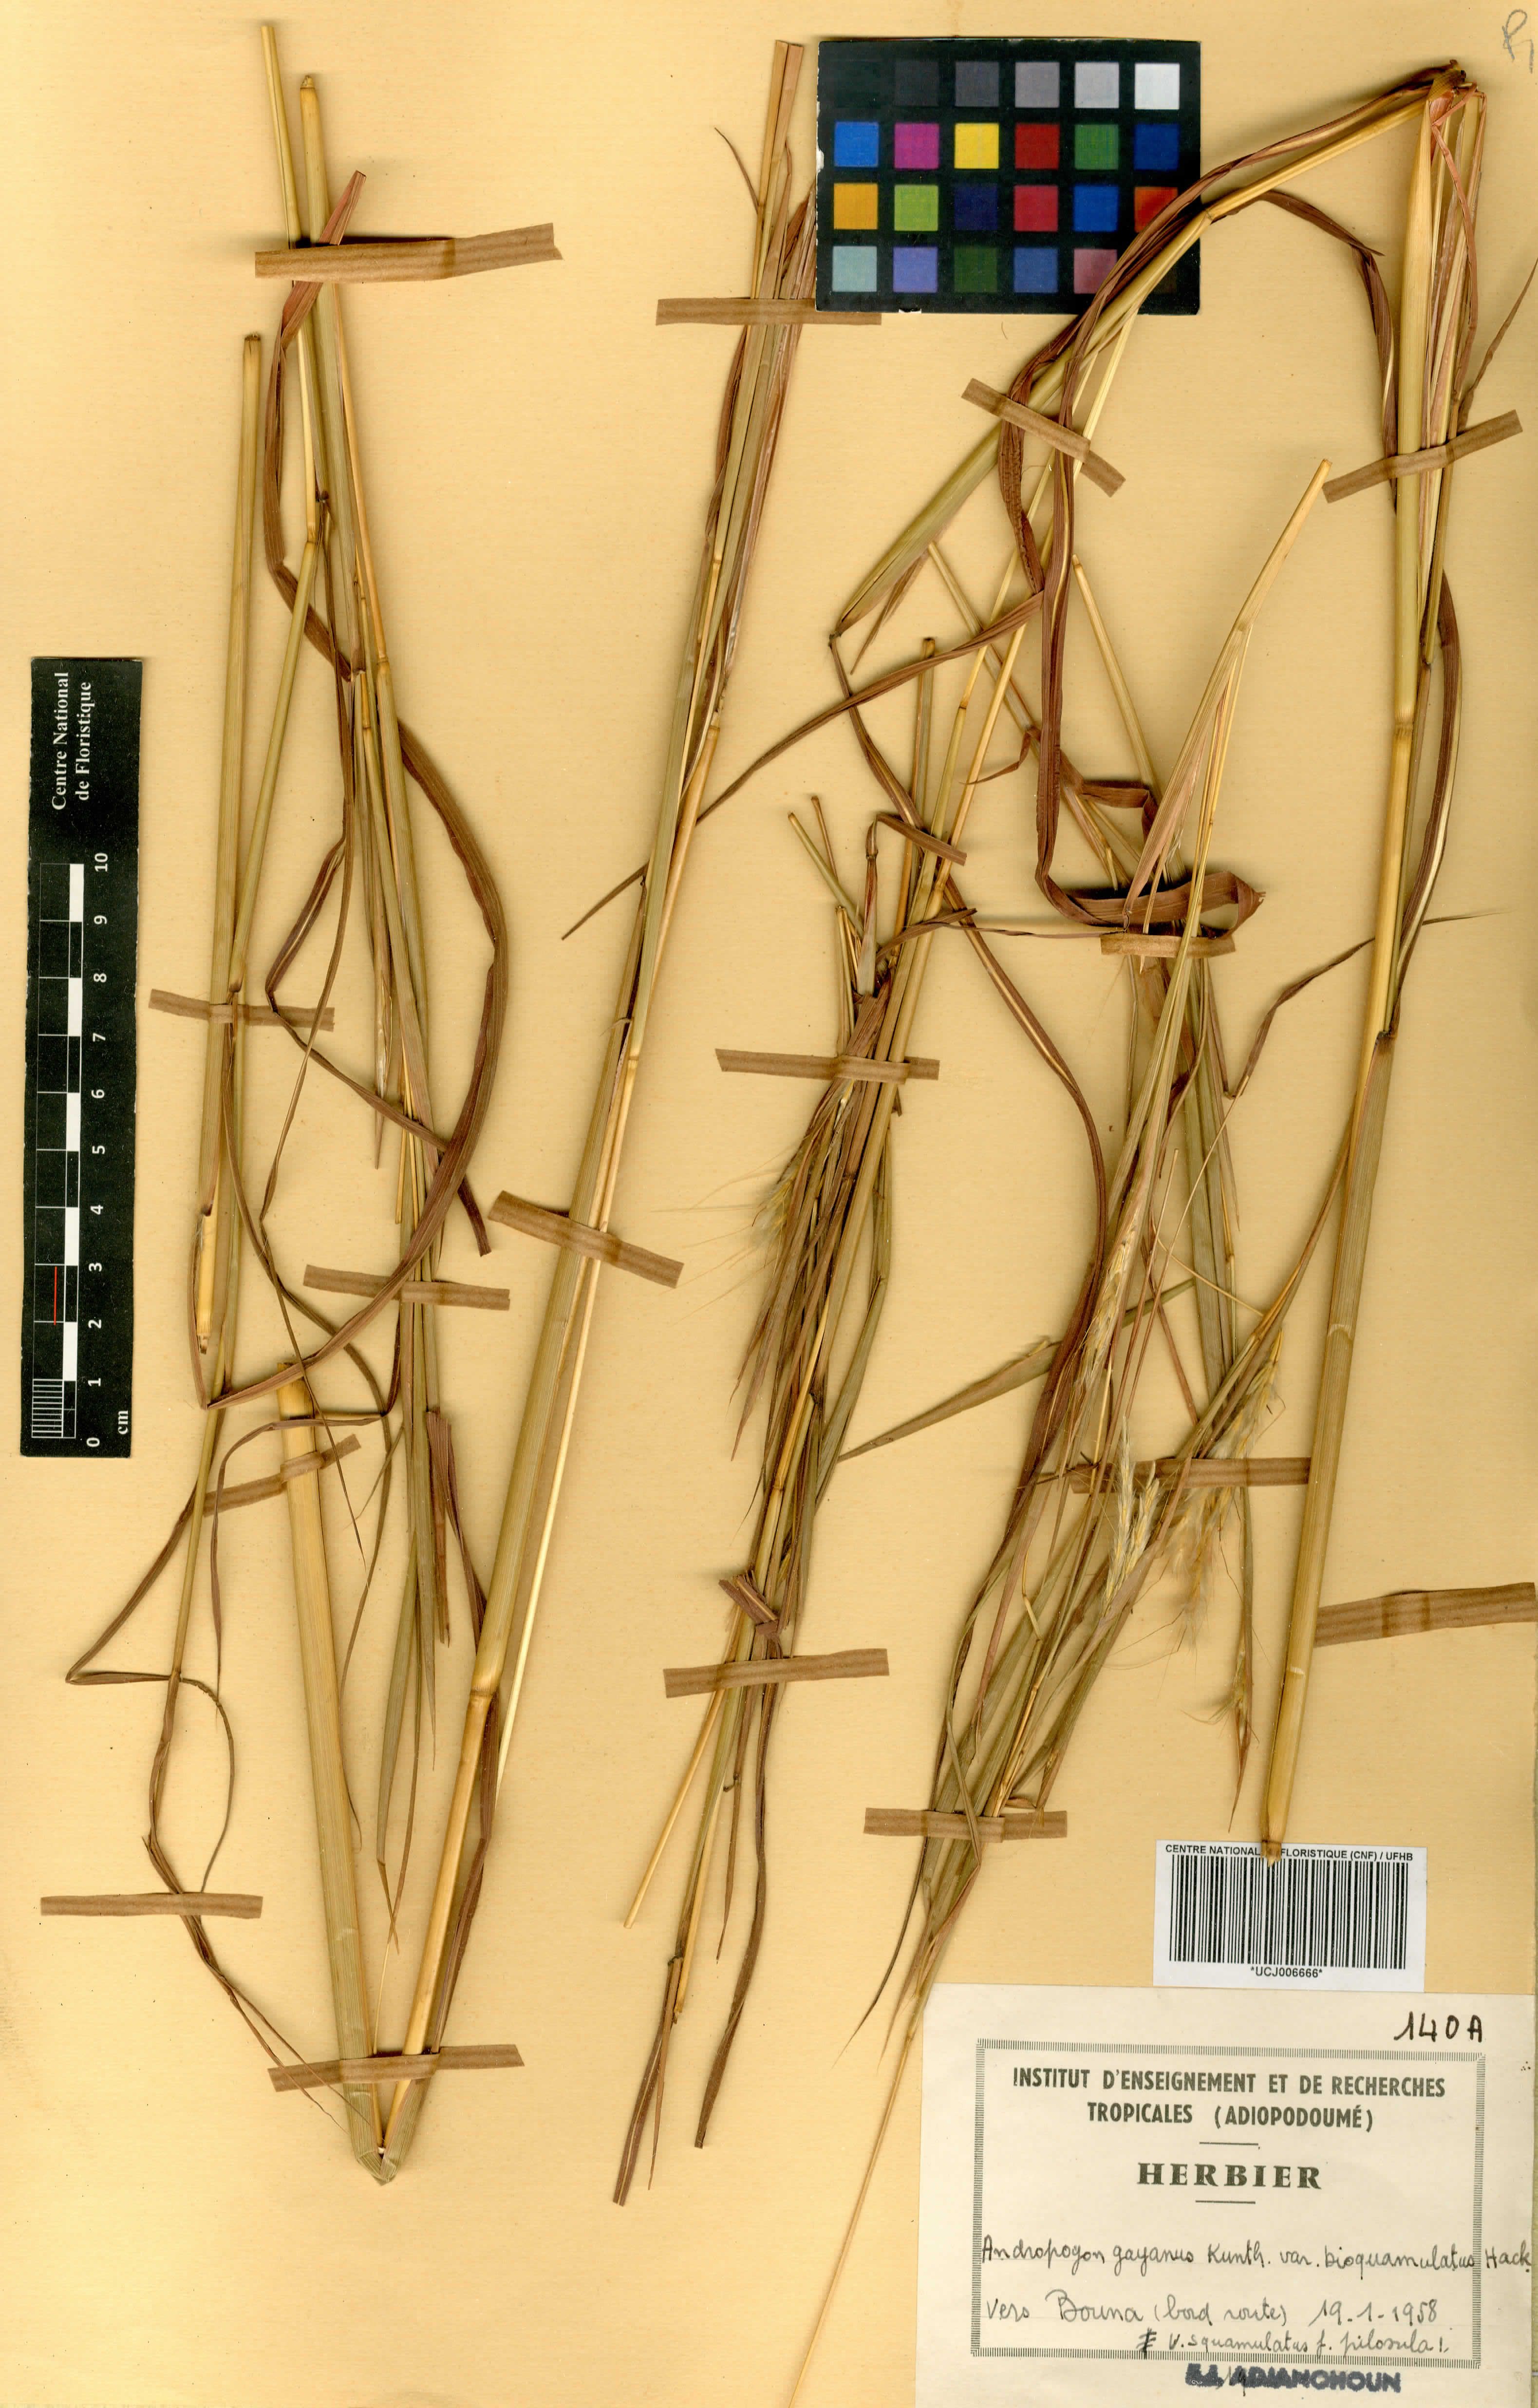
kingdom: Plantae
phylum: Tracheophyta
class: Liliopsida
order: Poales
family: Poaceae
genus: Andropogon
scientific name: Andropogon gayanus
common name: Tambuki grass
